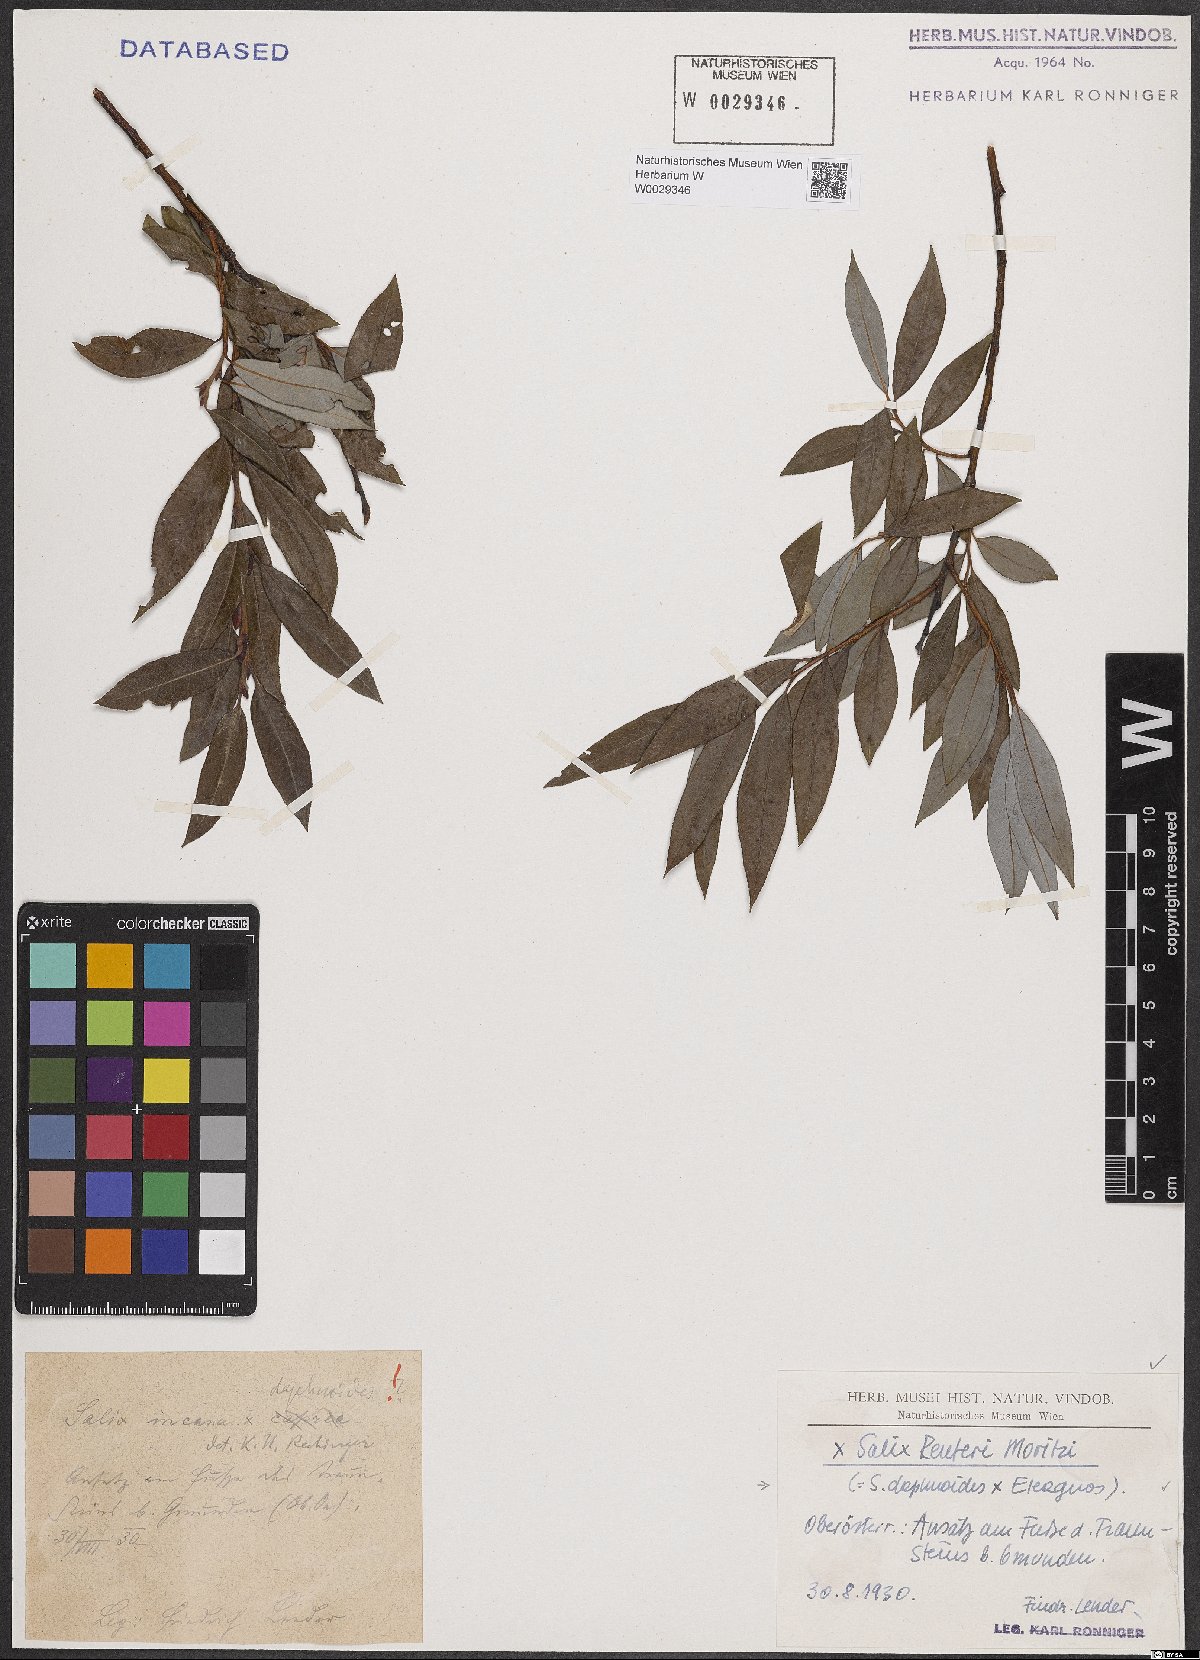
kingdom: Plantae
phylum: Tracheophyta
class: Magnoliopsida
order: Malpighiales
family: Salicaceae
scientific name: Salicaceae
